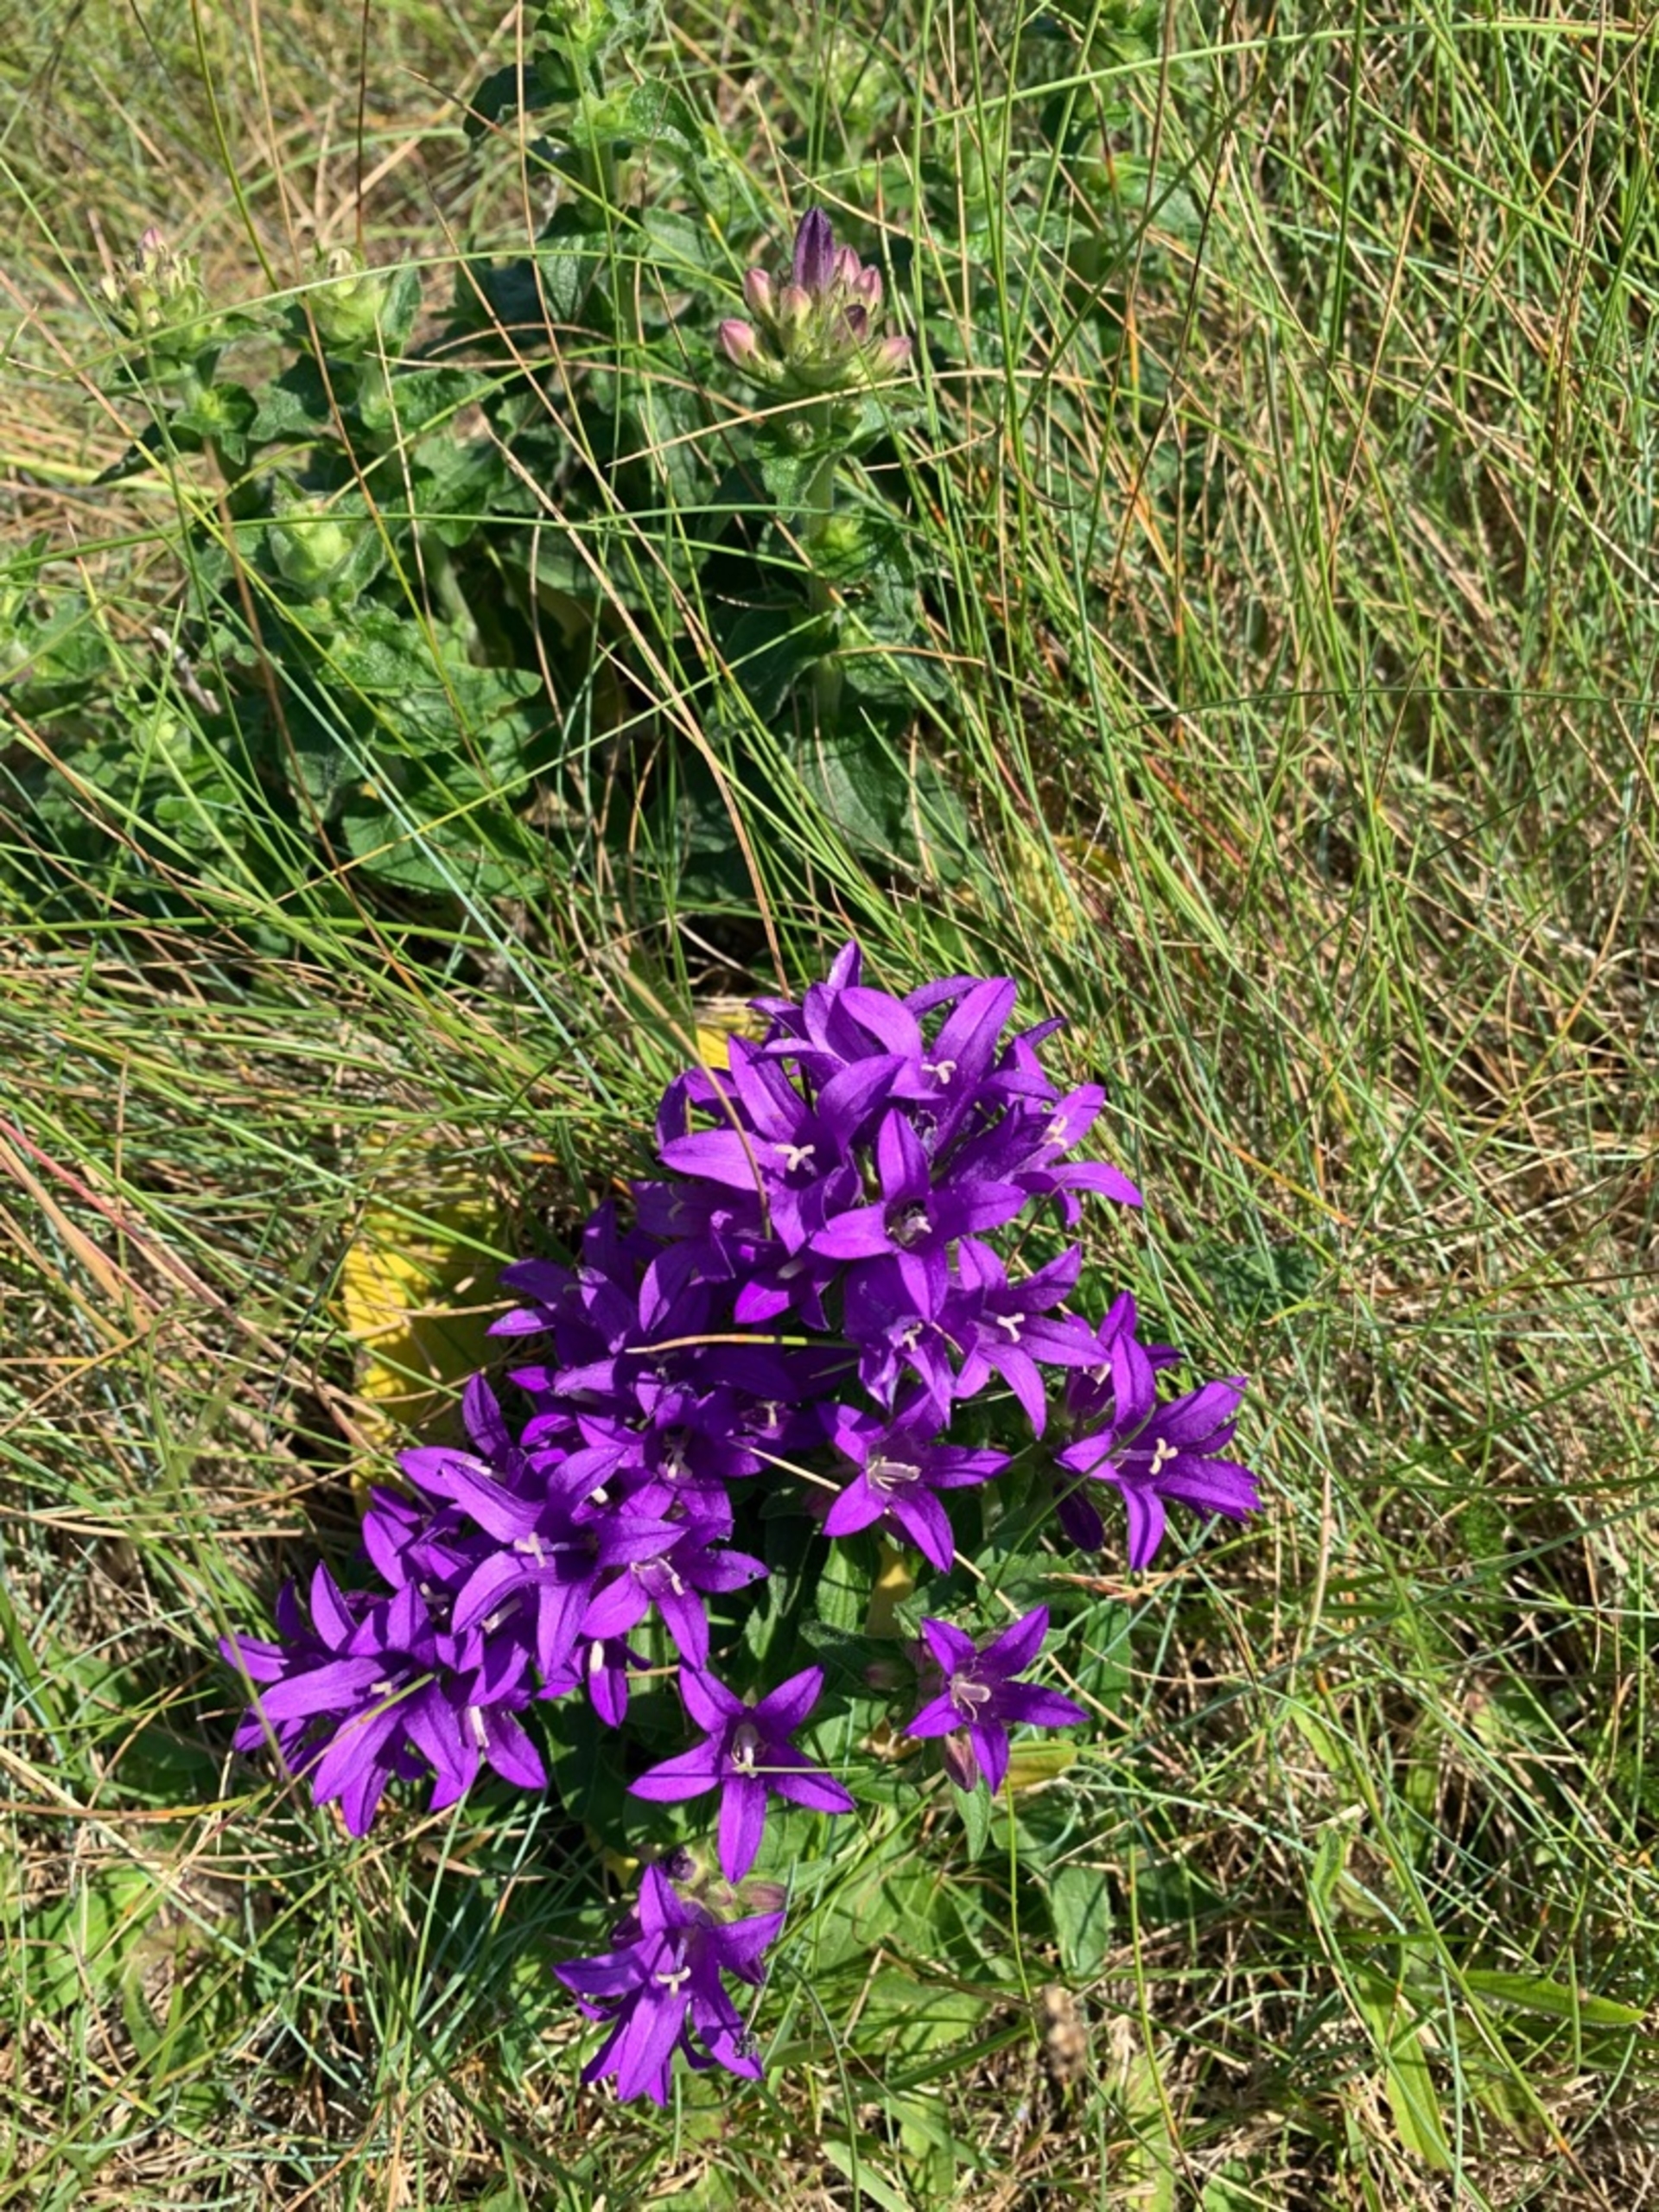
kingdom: Plantae
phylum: Tracheophyta
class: Magnoliopsida
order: Asterales
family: Campanulaceae
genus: Campanula
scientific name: Campanula glomerata
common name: Nøgleblomstret klokke
